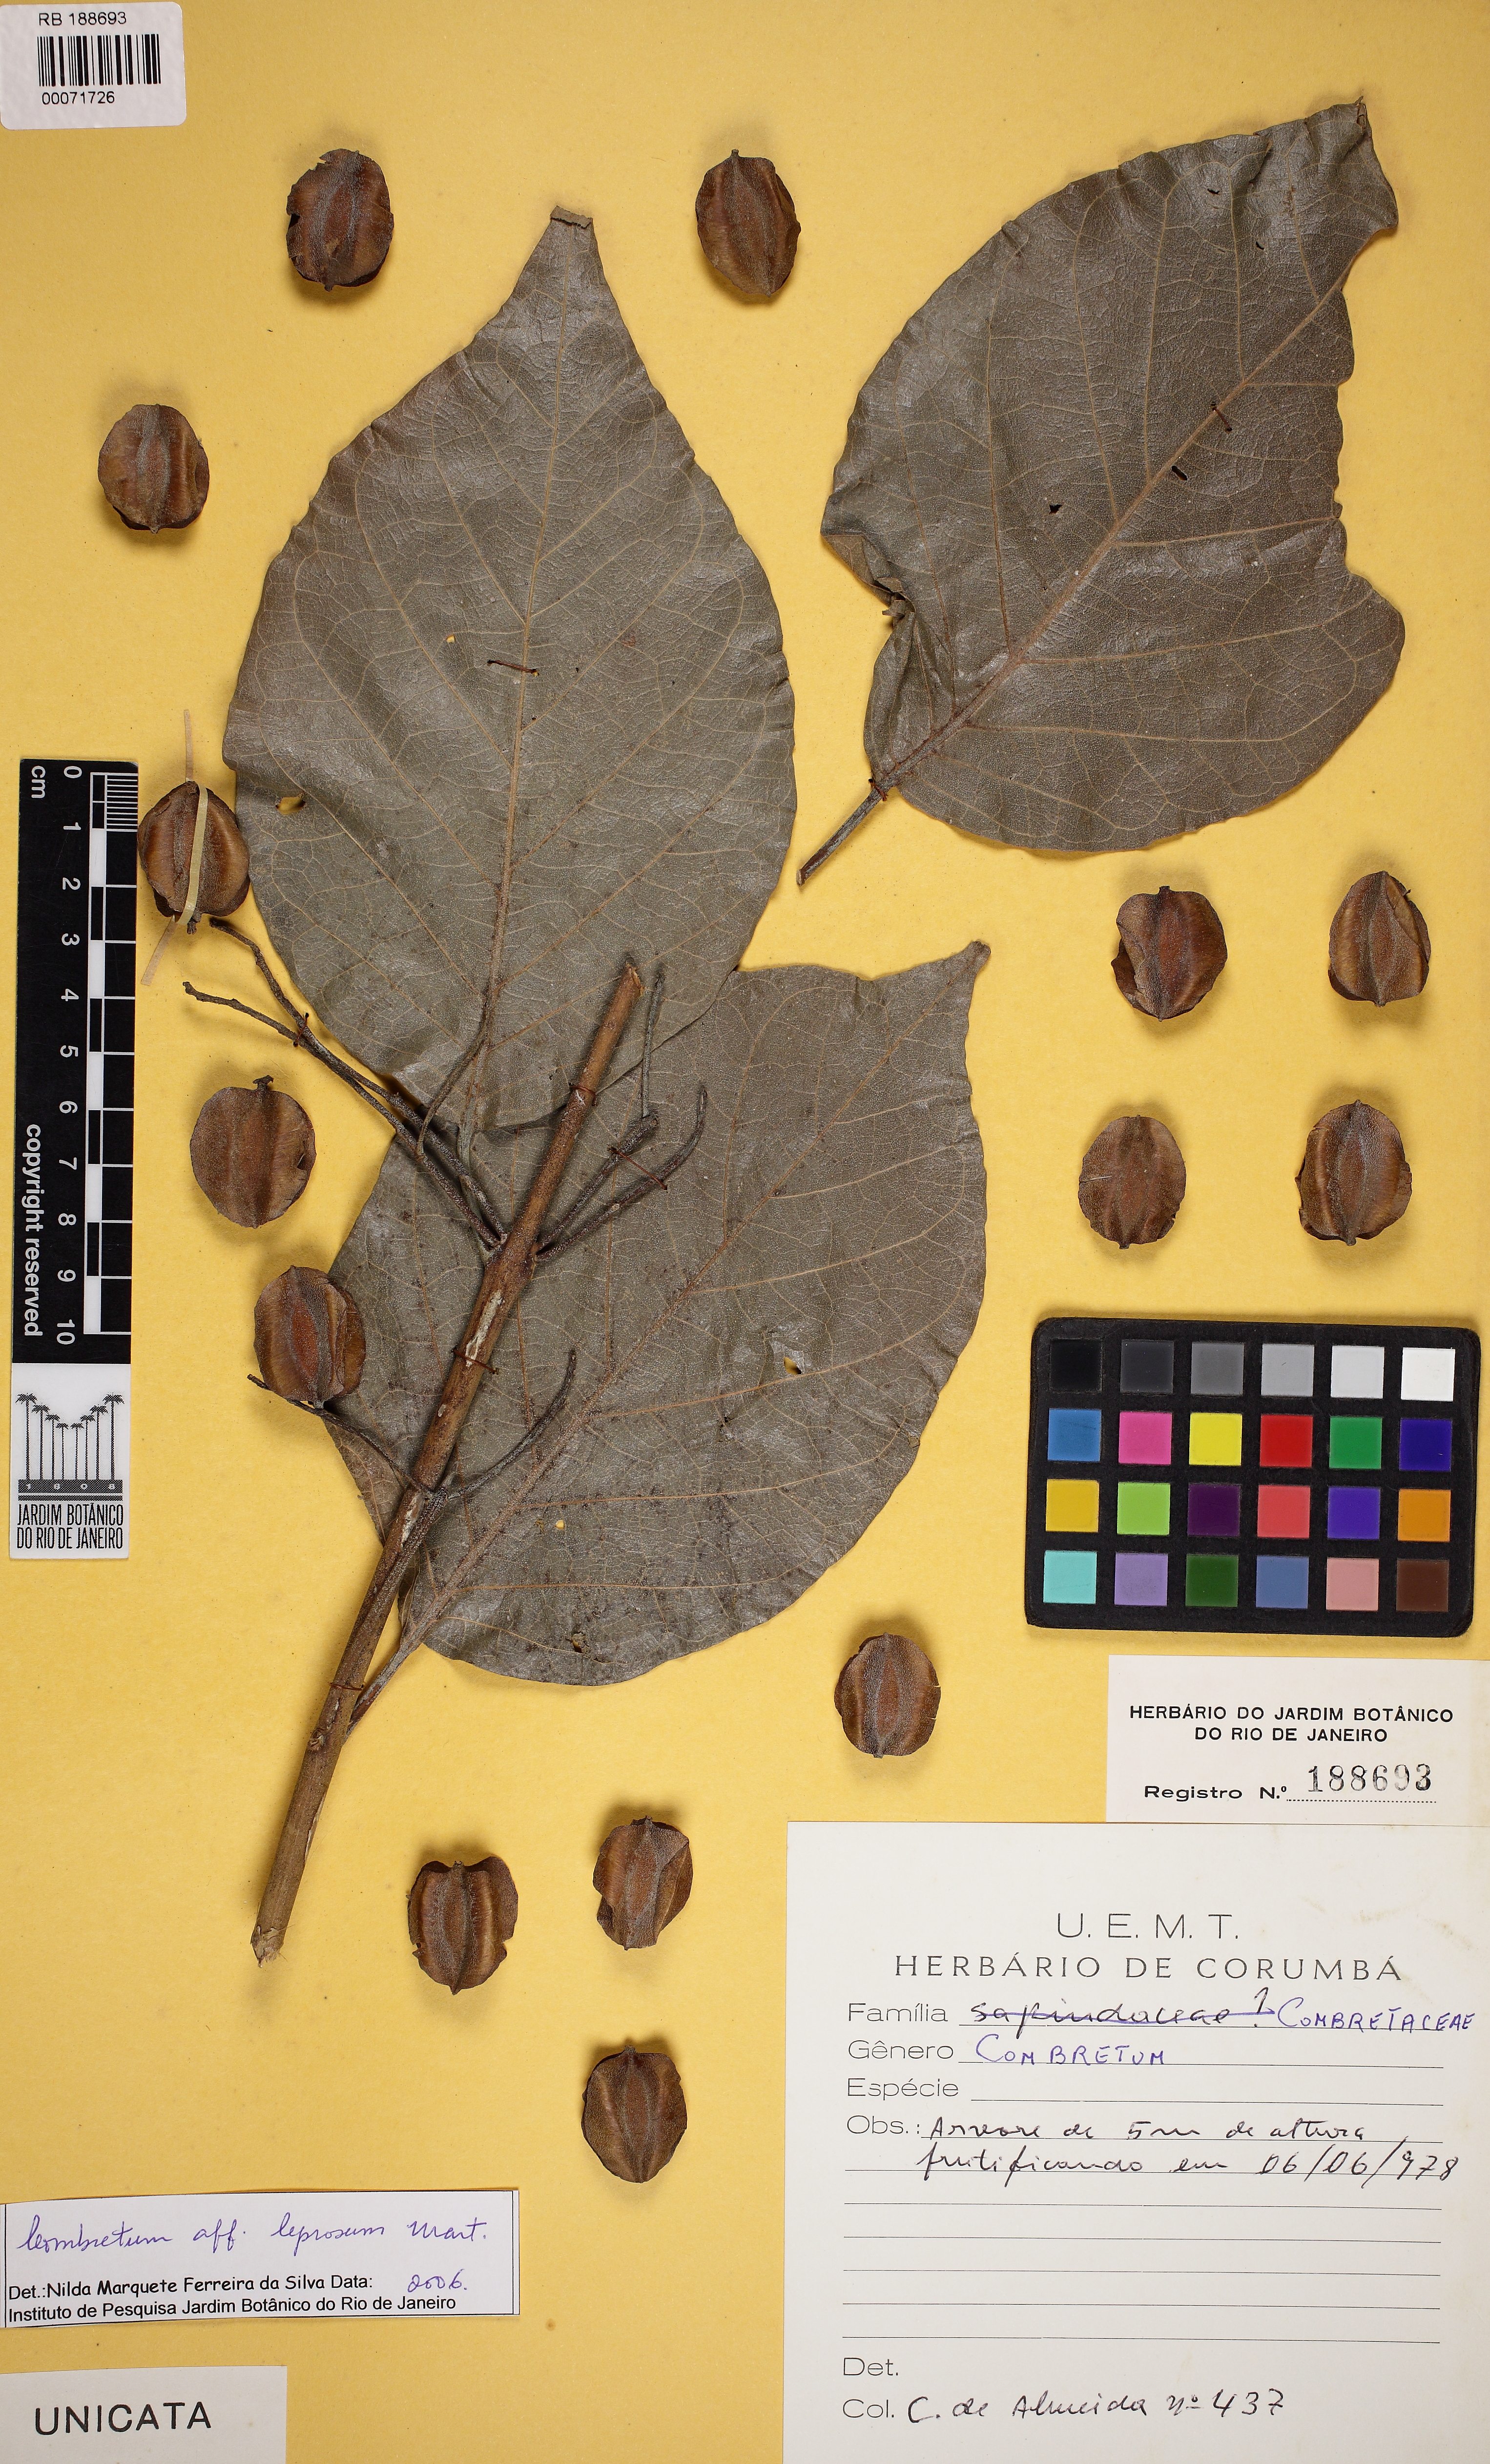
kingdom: Plantae
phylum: Tracheophyta
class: Magnoliopsida
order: Myrtales
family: Combretaceae
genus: Combretum
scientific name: Combretum leprosum
